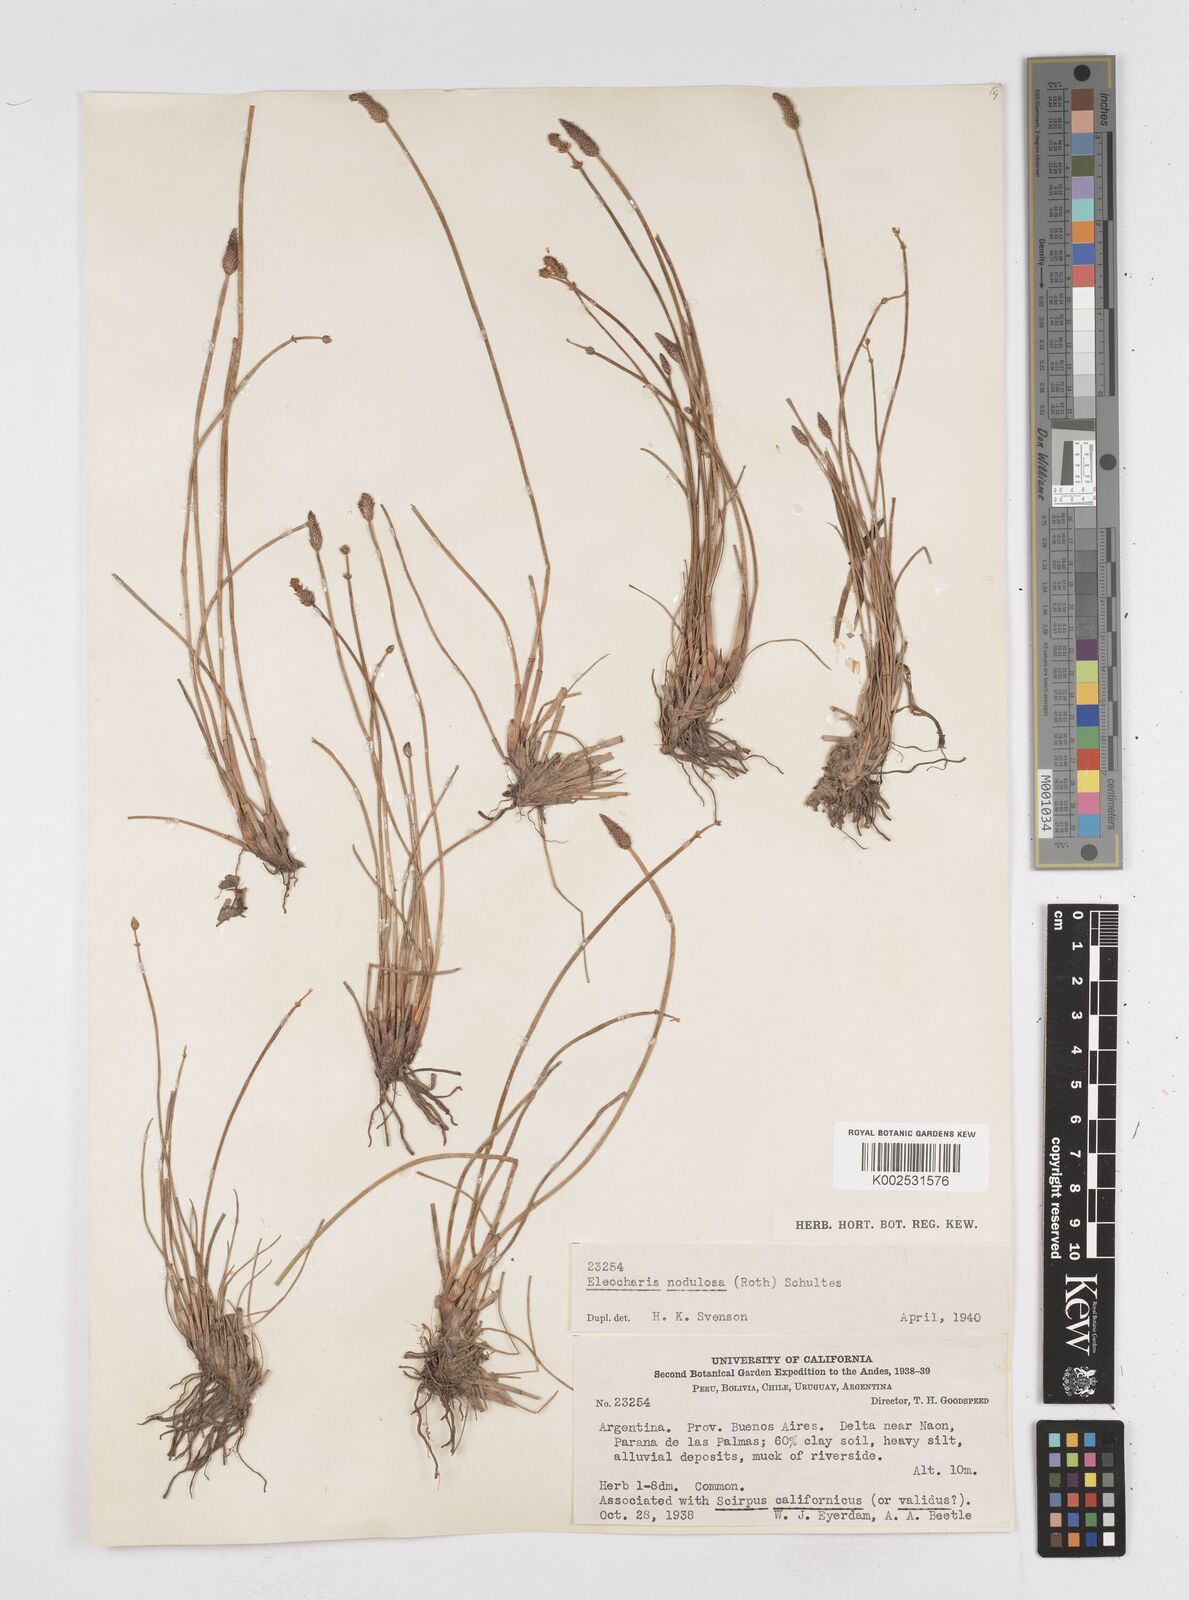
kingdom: Plantae
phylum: Tracheophyta
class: Liliopsida
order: Poales
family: Cyperaceae
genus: Eleocharis
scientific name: Eleocharis montana
